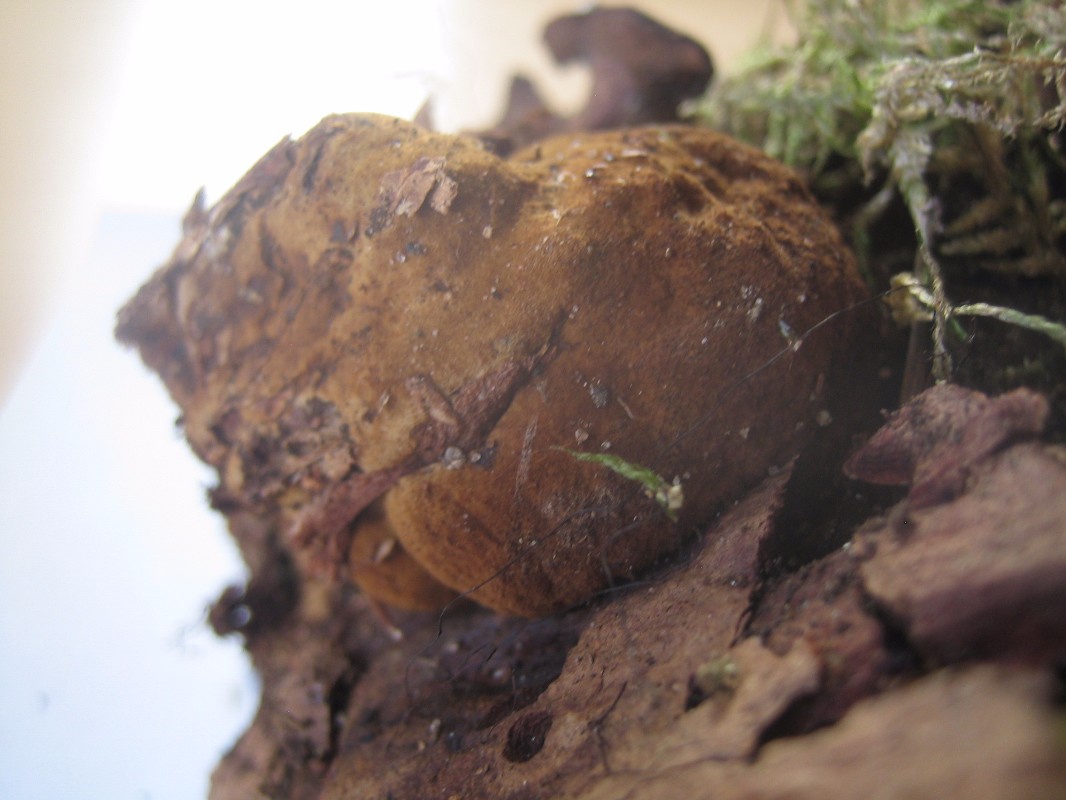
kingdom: Fungi
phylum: Basidiomycota
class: Agaricomycetes
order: Polyporales
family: Ischnodermataceae
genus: Ischnoderma
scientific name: Ischnoderma benzoinum
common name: gran-tjæreporesvamp
